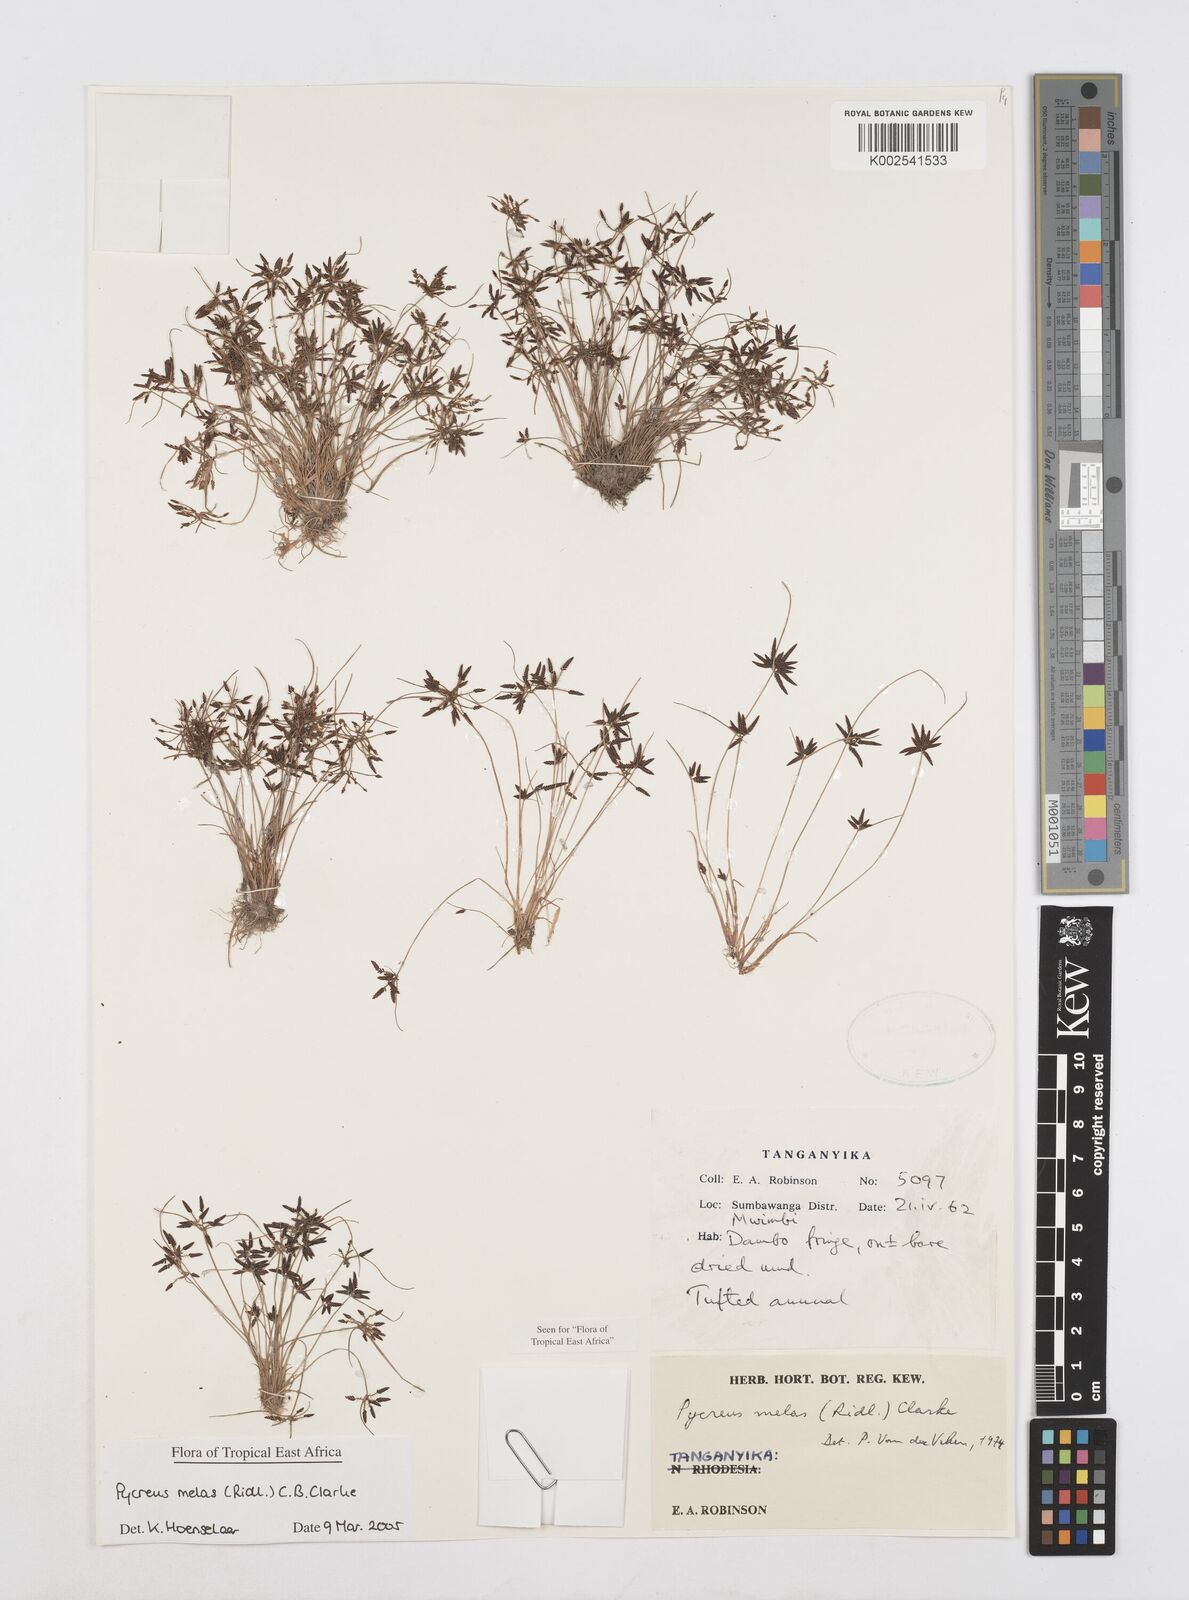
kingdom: Plantae
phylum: Tracheophyta
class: Liliopsida
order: Poales
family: Cyperaceae
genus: Cyperus
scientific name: Cyperus melas
